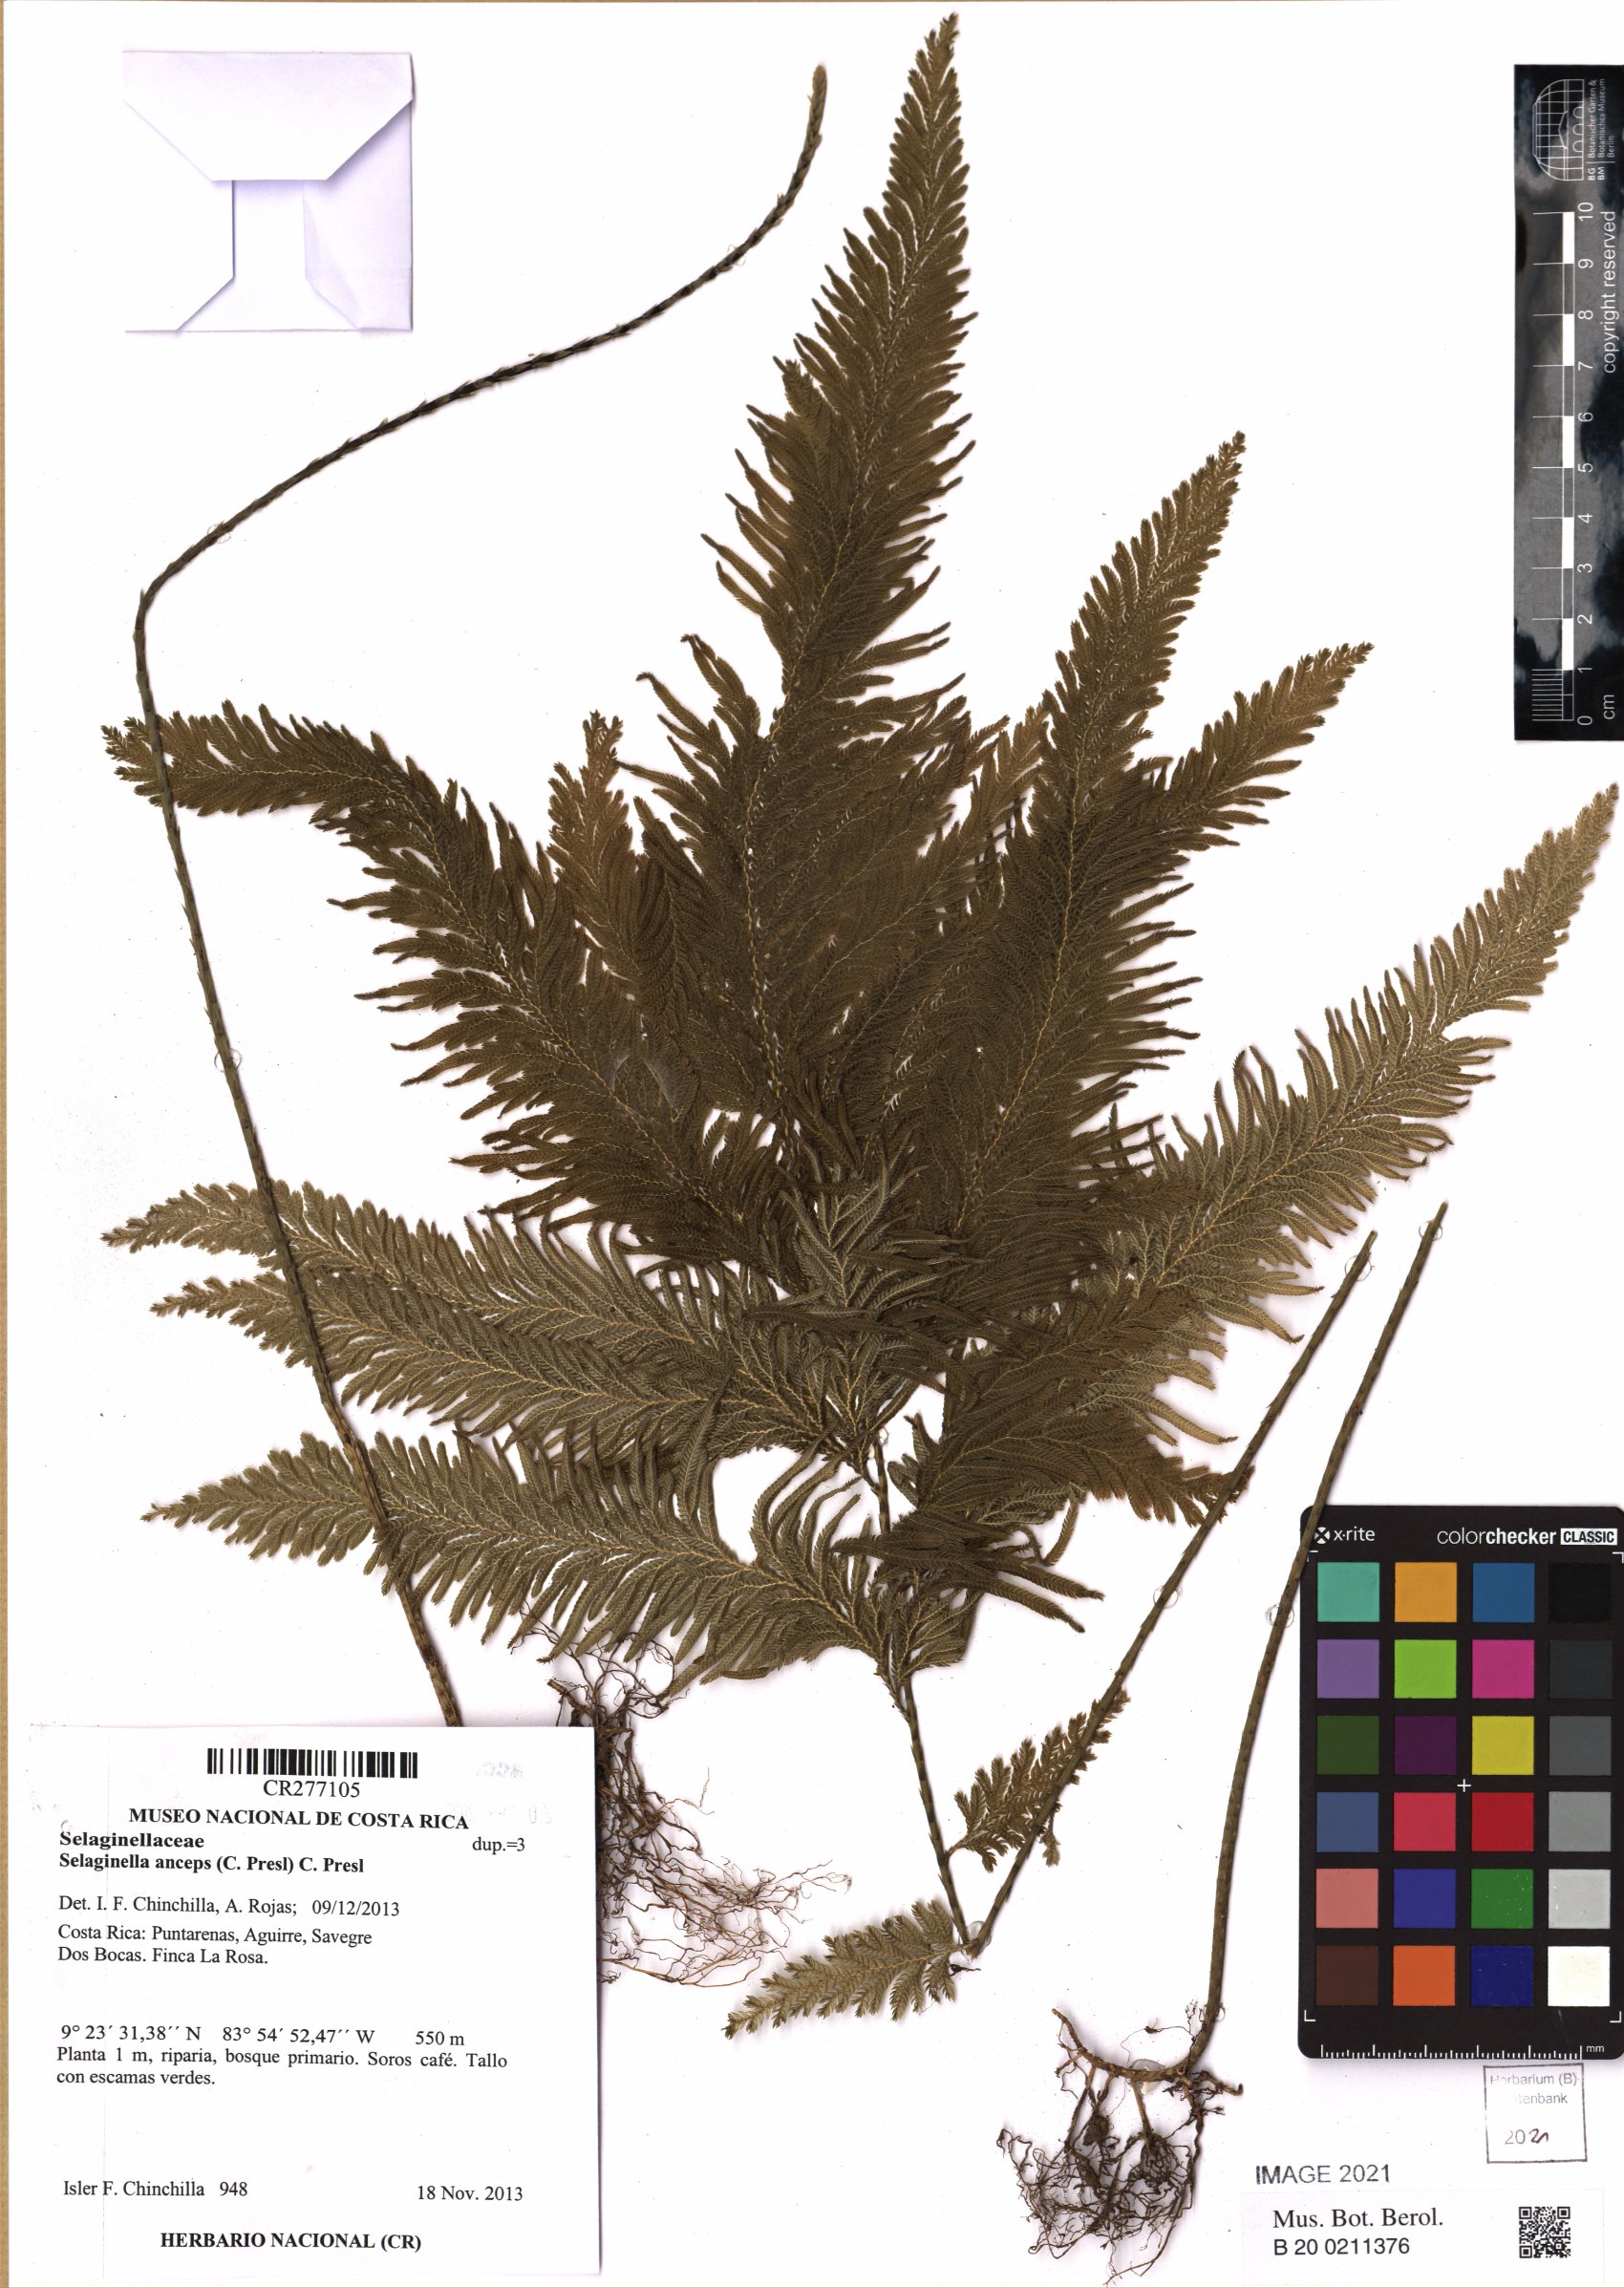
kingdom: Plantae
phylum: Tracheophyta
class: Lycopodiopsida
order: Selaginellales
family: Selaginellaceae
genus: Selaginella
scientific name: Selaginella anceps
